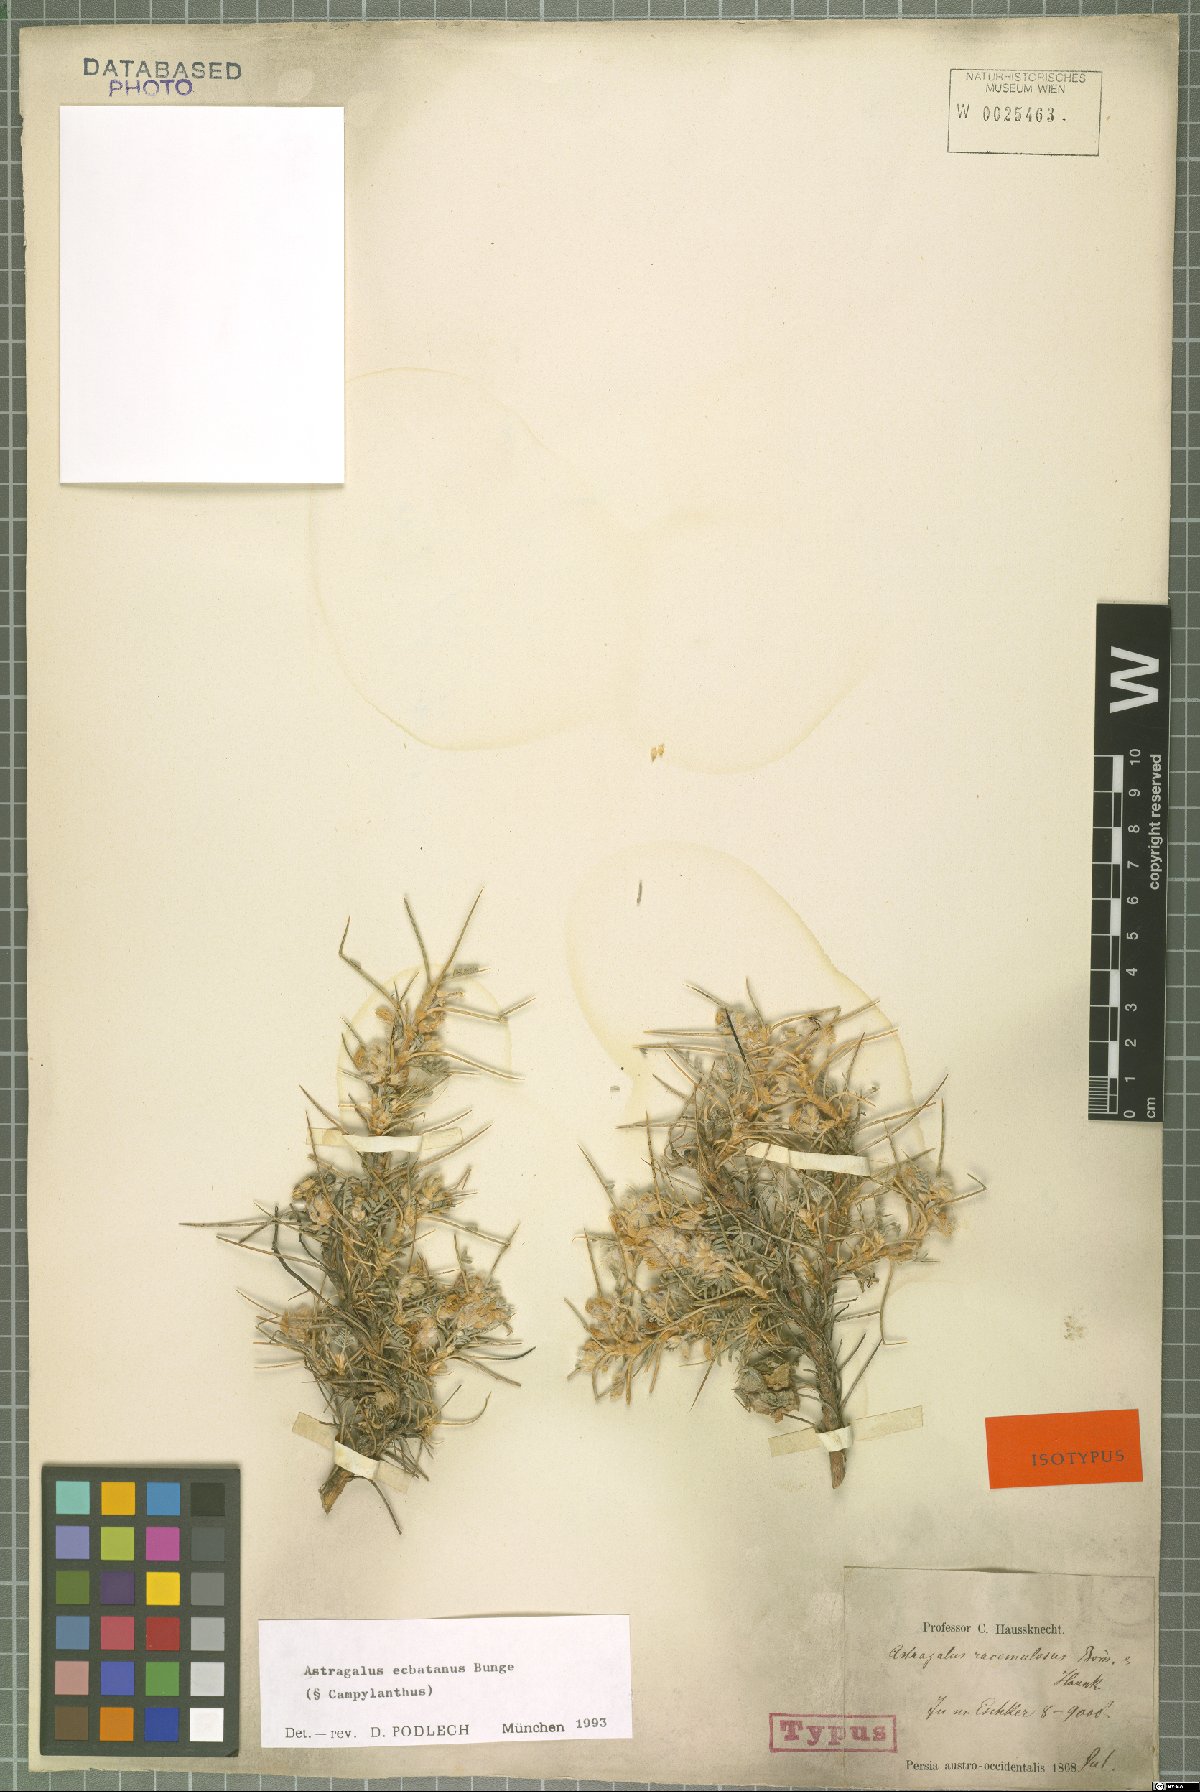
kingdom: Plantae
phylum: Tracheophyta
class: Magnoliopsida
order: Fabales
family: Fabaceae
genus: Astragalus
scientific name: Astragalus ecbatanus
